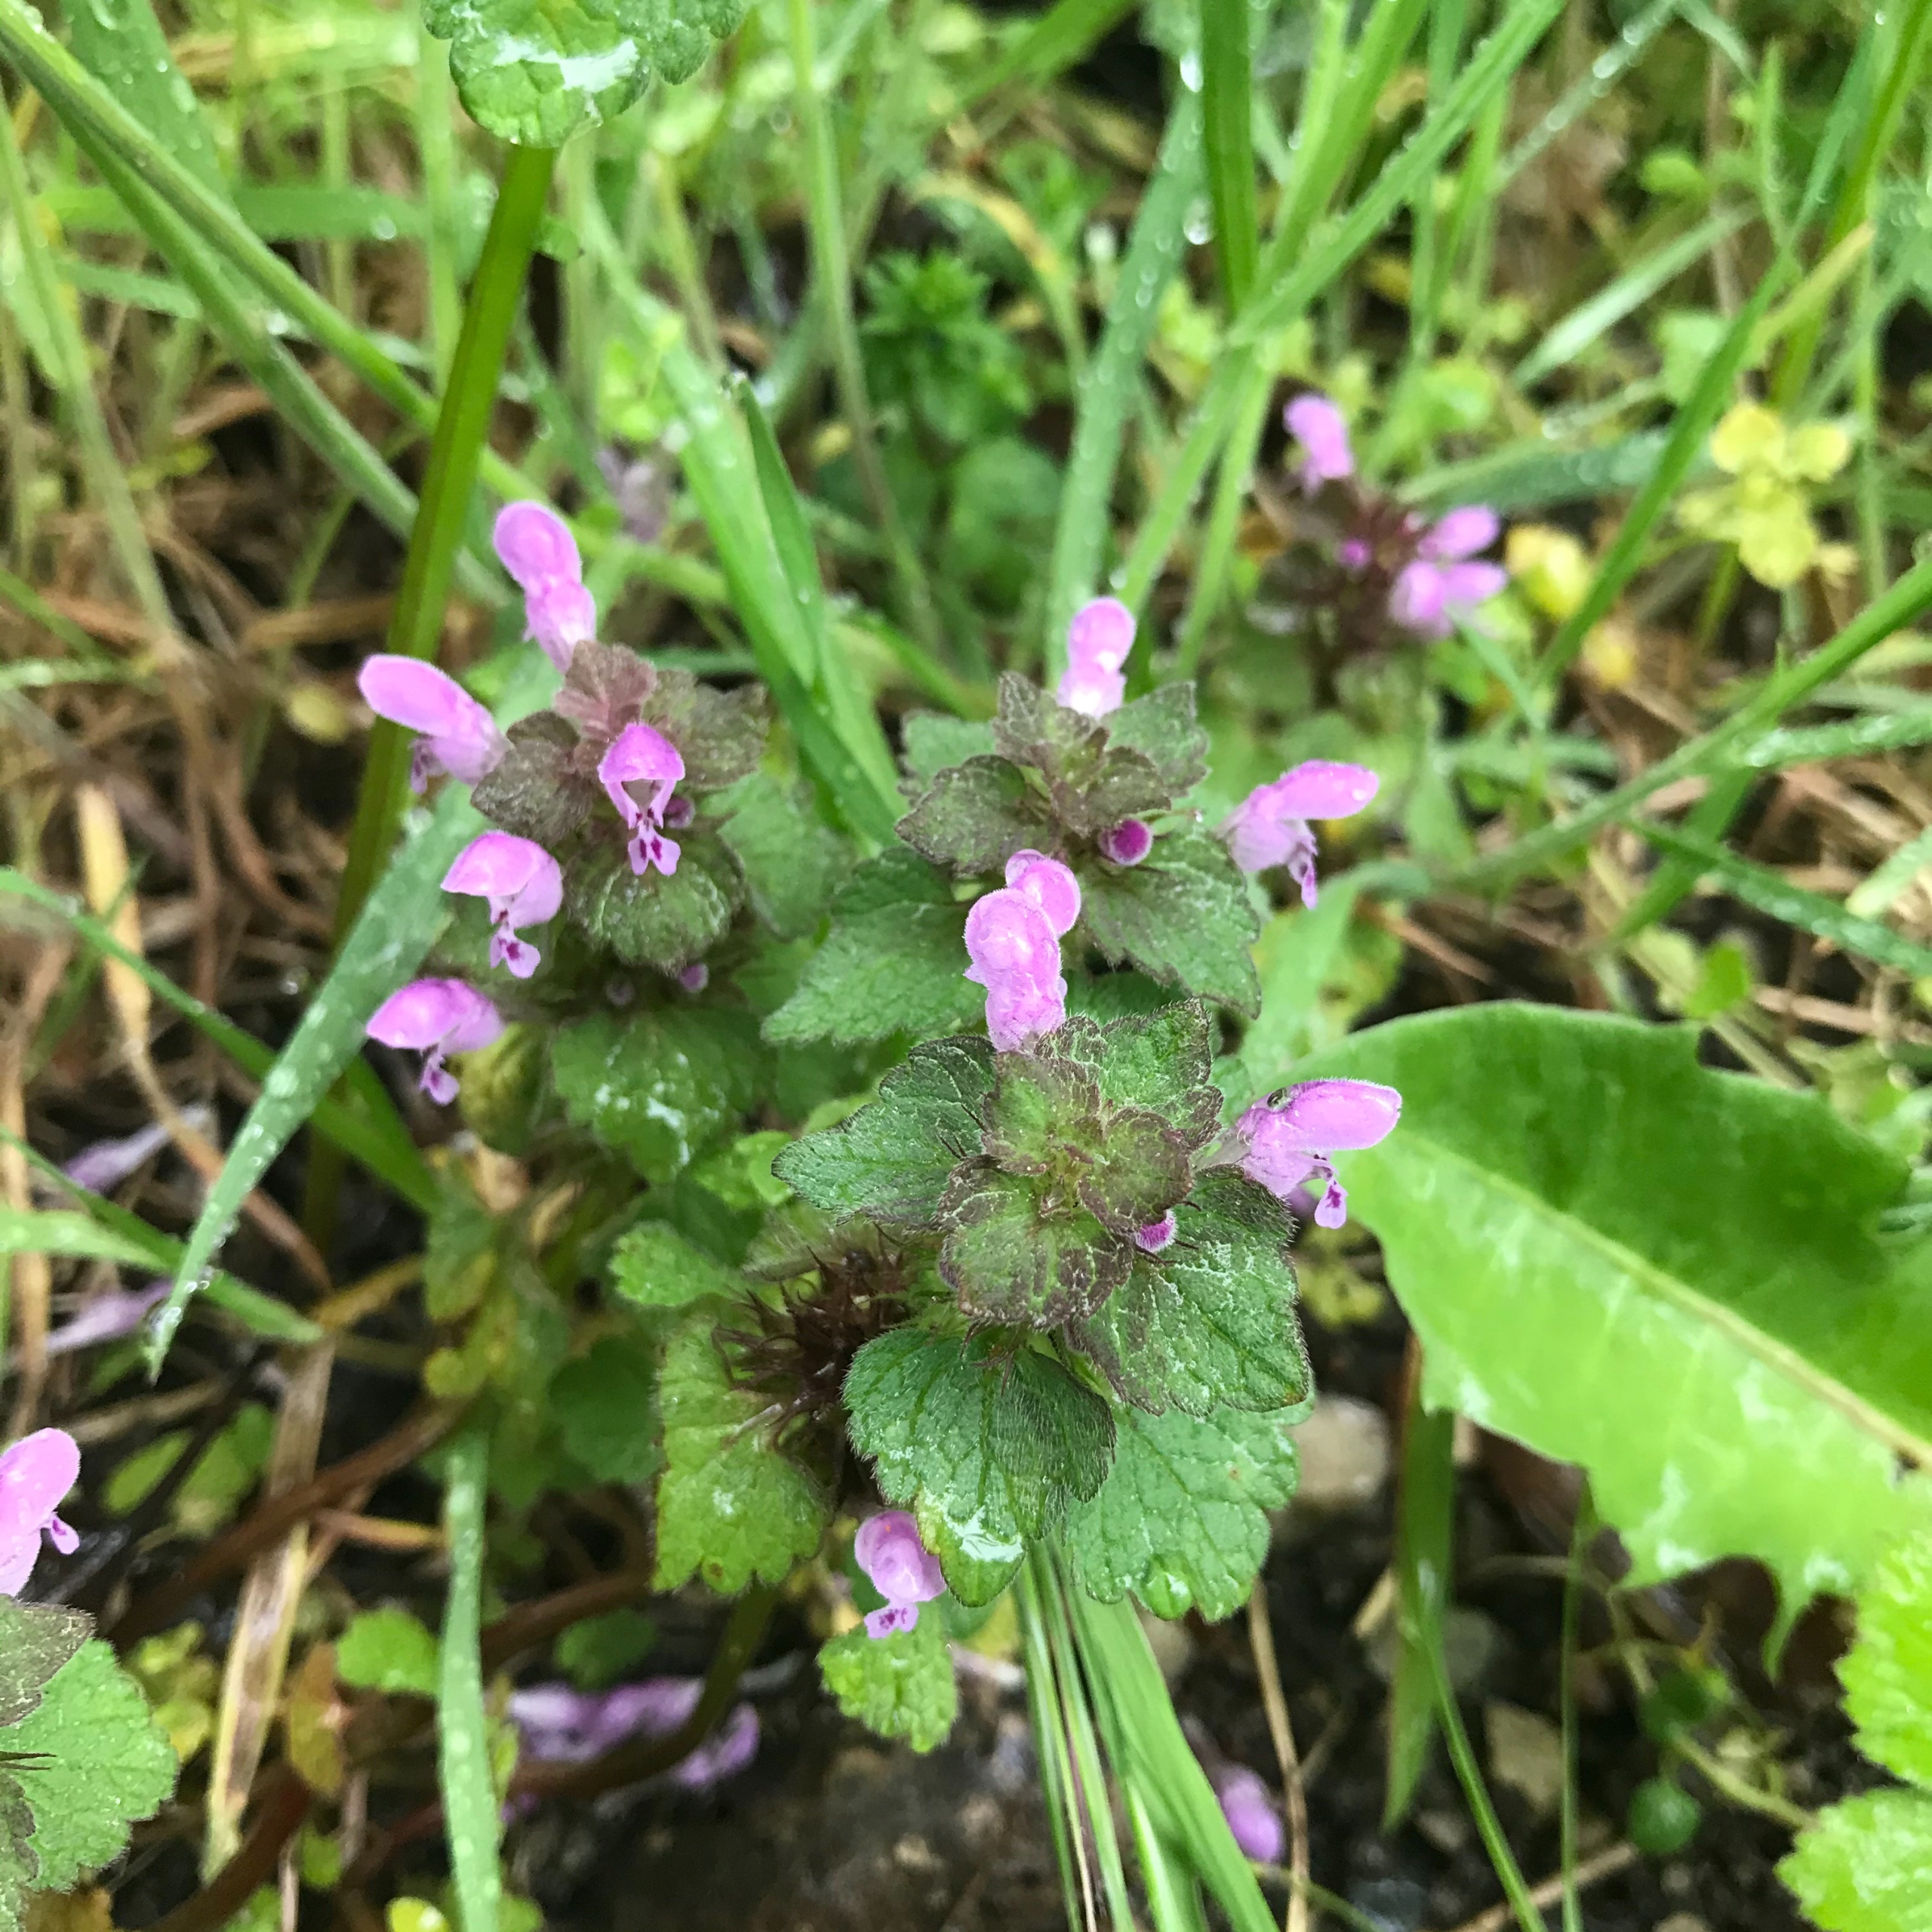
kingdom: Plantae
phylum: Tracheophyta
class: Magnoliopsida
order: Lamiales
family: Lamiaceae
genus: Lamium
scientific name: Lamium purpureum
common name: Rød tvetand
